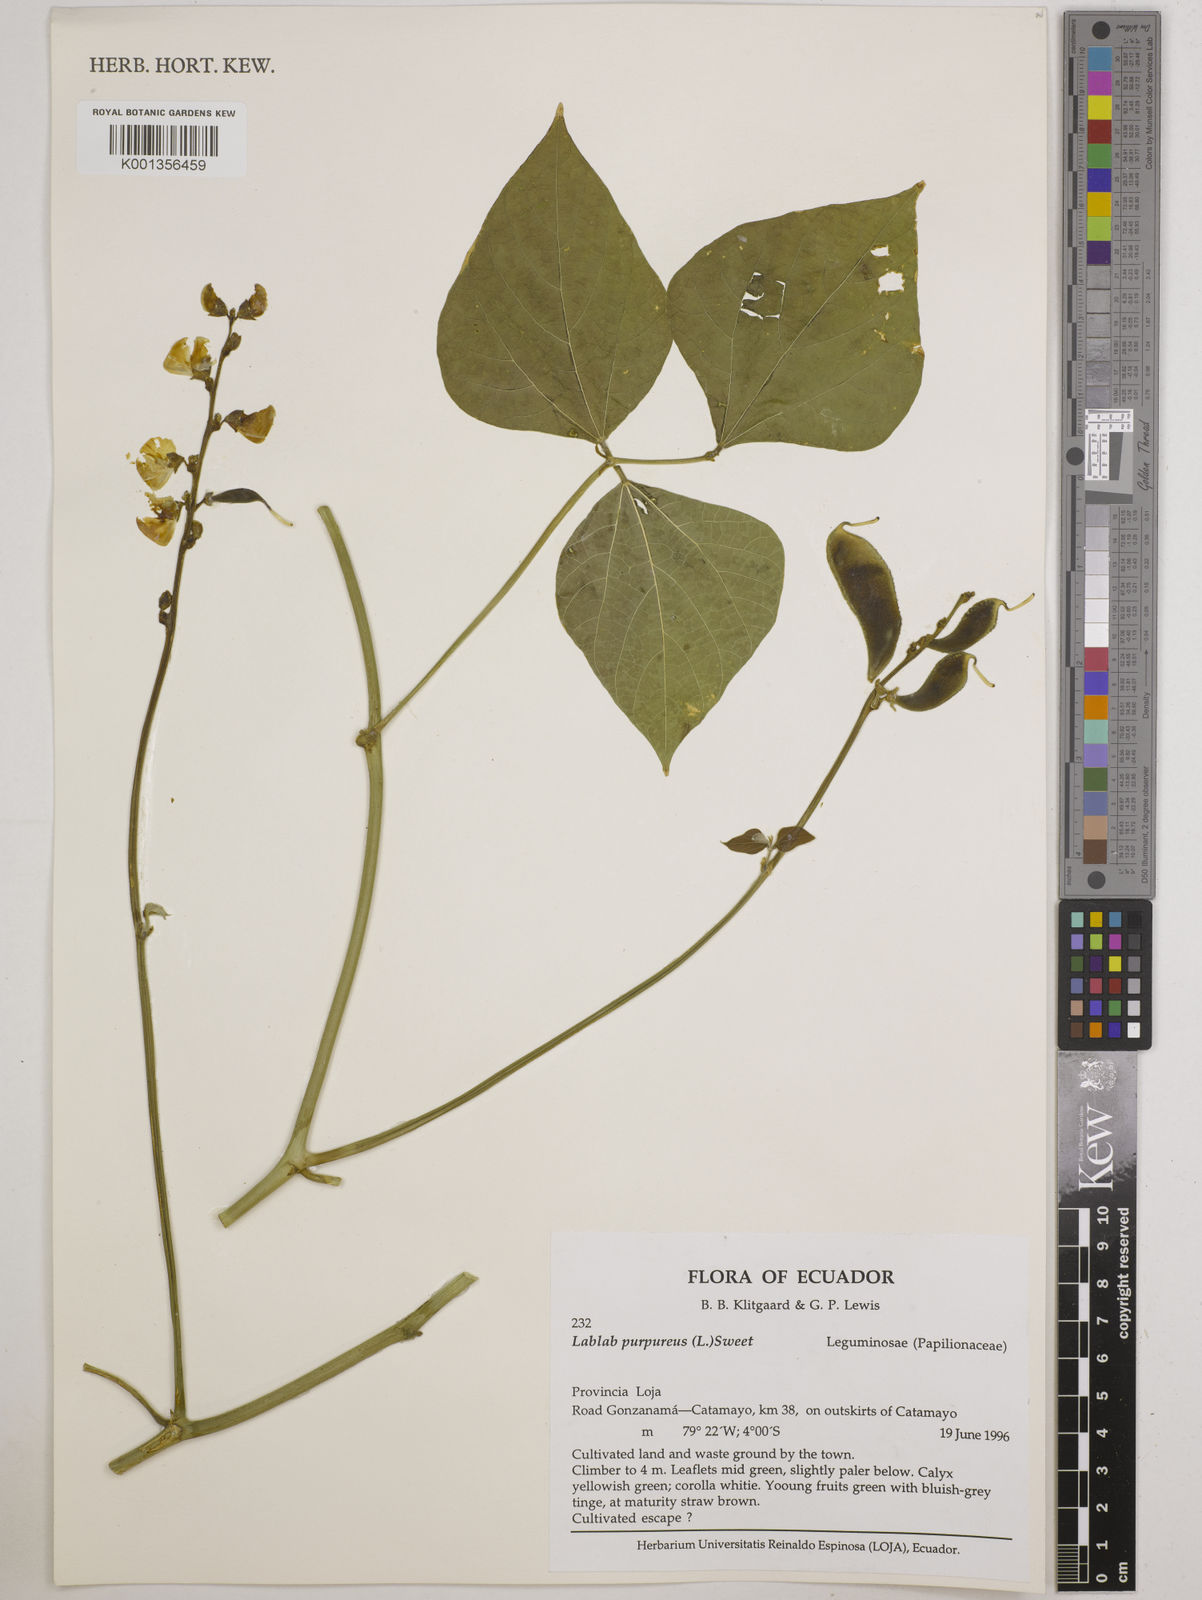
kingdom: Plantae
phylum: Tracheophyta
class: Magnoliopsida
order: Fabales
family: Fabaceae
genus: Lablab
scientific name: Lablab purpureus
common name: Lablab-bean
